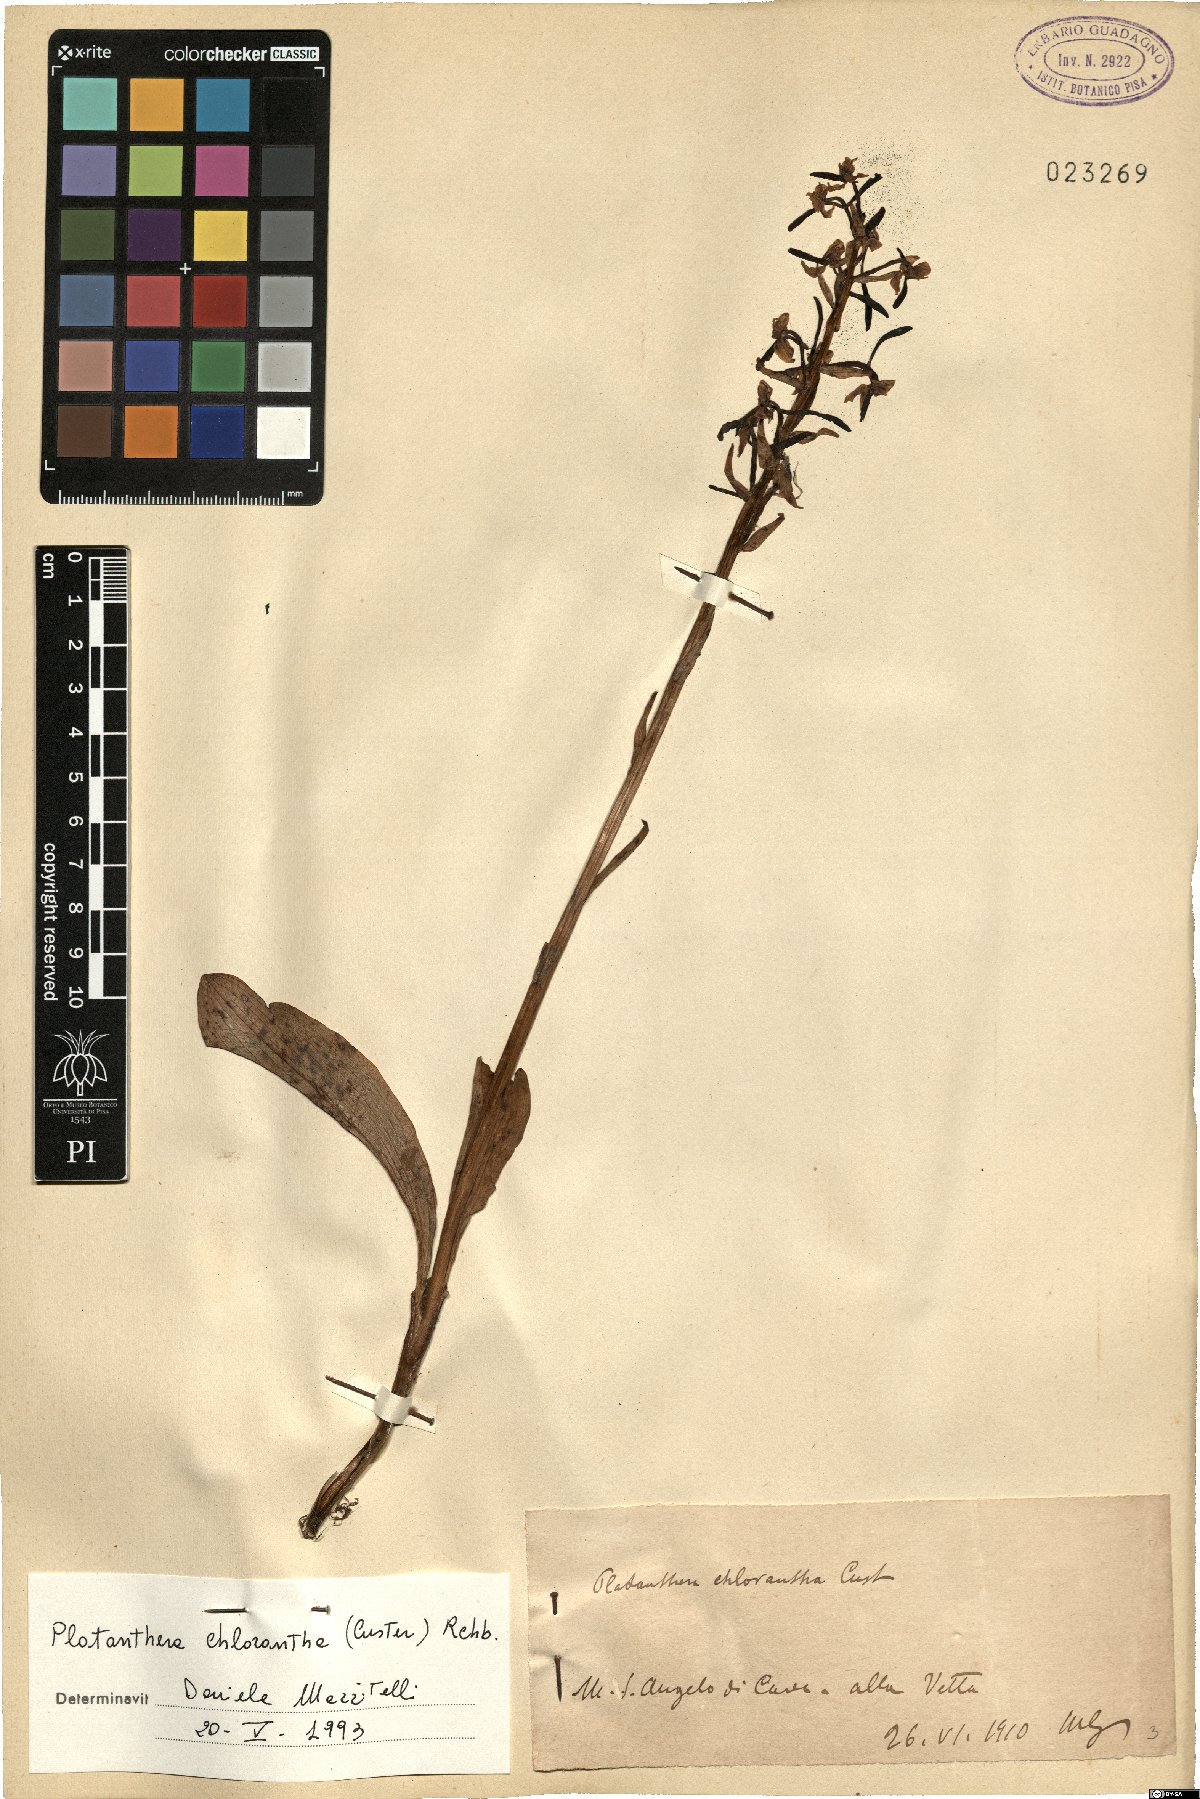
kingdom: Plantae
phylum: Tracheophyta
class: Liliopsida
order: Asparagales
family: Orchidaceae
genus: Platanthera
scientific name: Platanthera chlorantha
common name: Greater butterfly-orchid
